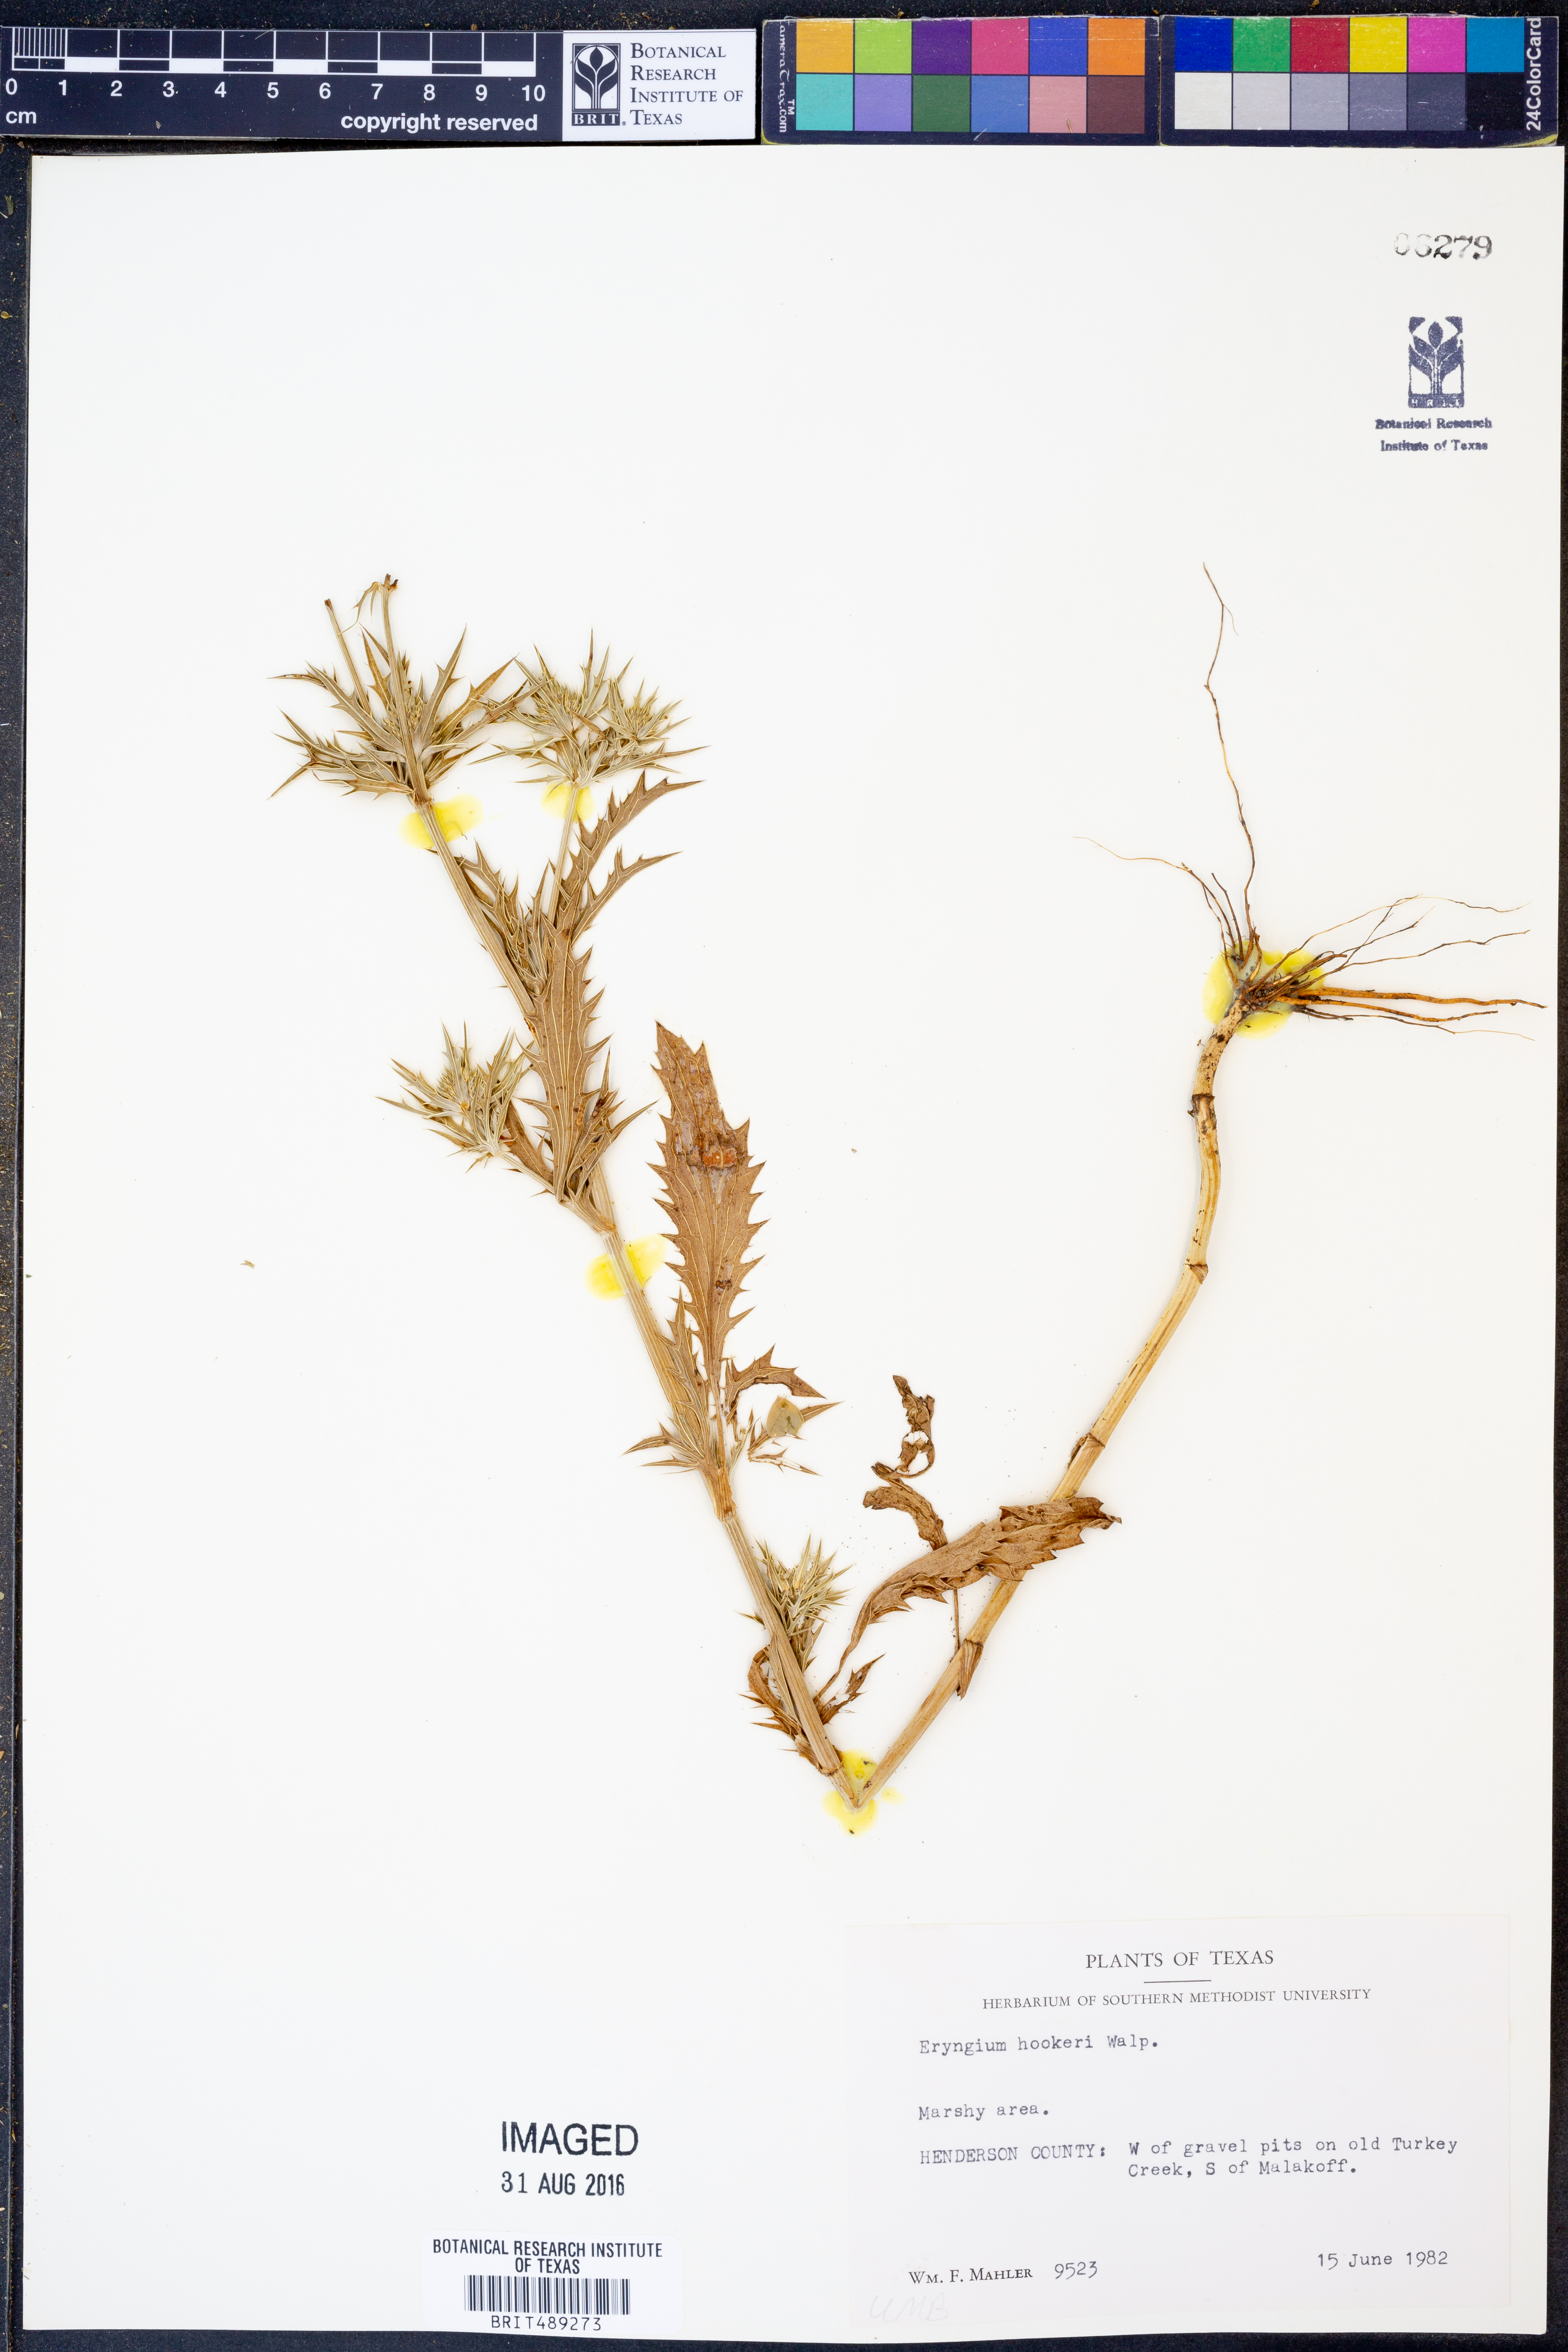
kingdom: Plantae
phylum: Tracheophyta
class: Magnoliopsida
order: Apiales
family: Apiaceae
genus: Eryngium
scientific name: Eryngium hookeri
